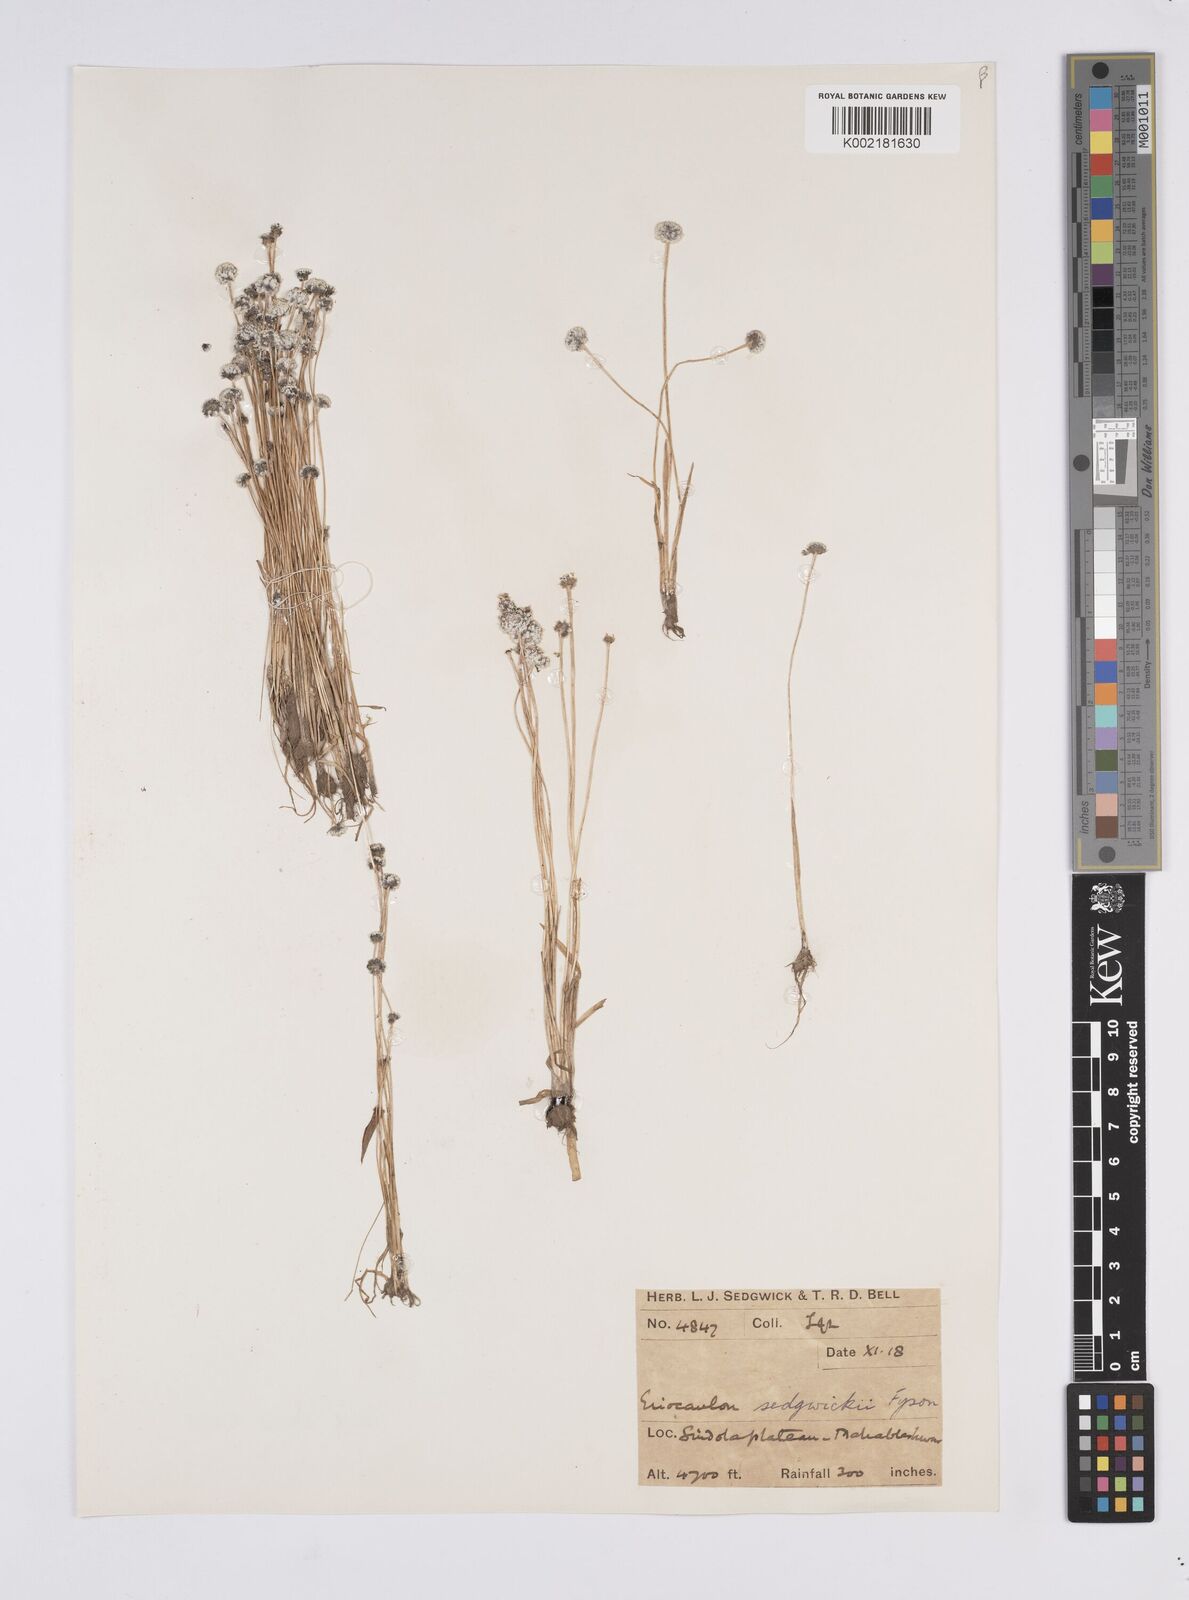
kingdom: Plantae
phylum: Tracheophyta
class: Liliopsida
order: Poales
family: Eriocaulaceae
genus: Eriocaulon
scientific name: Eriocaulon sedgwickii
